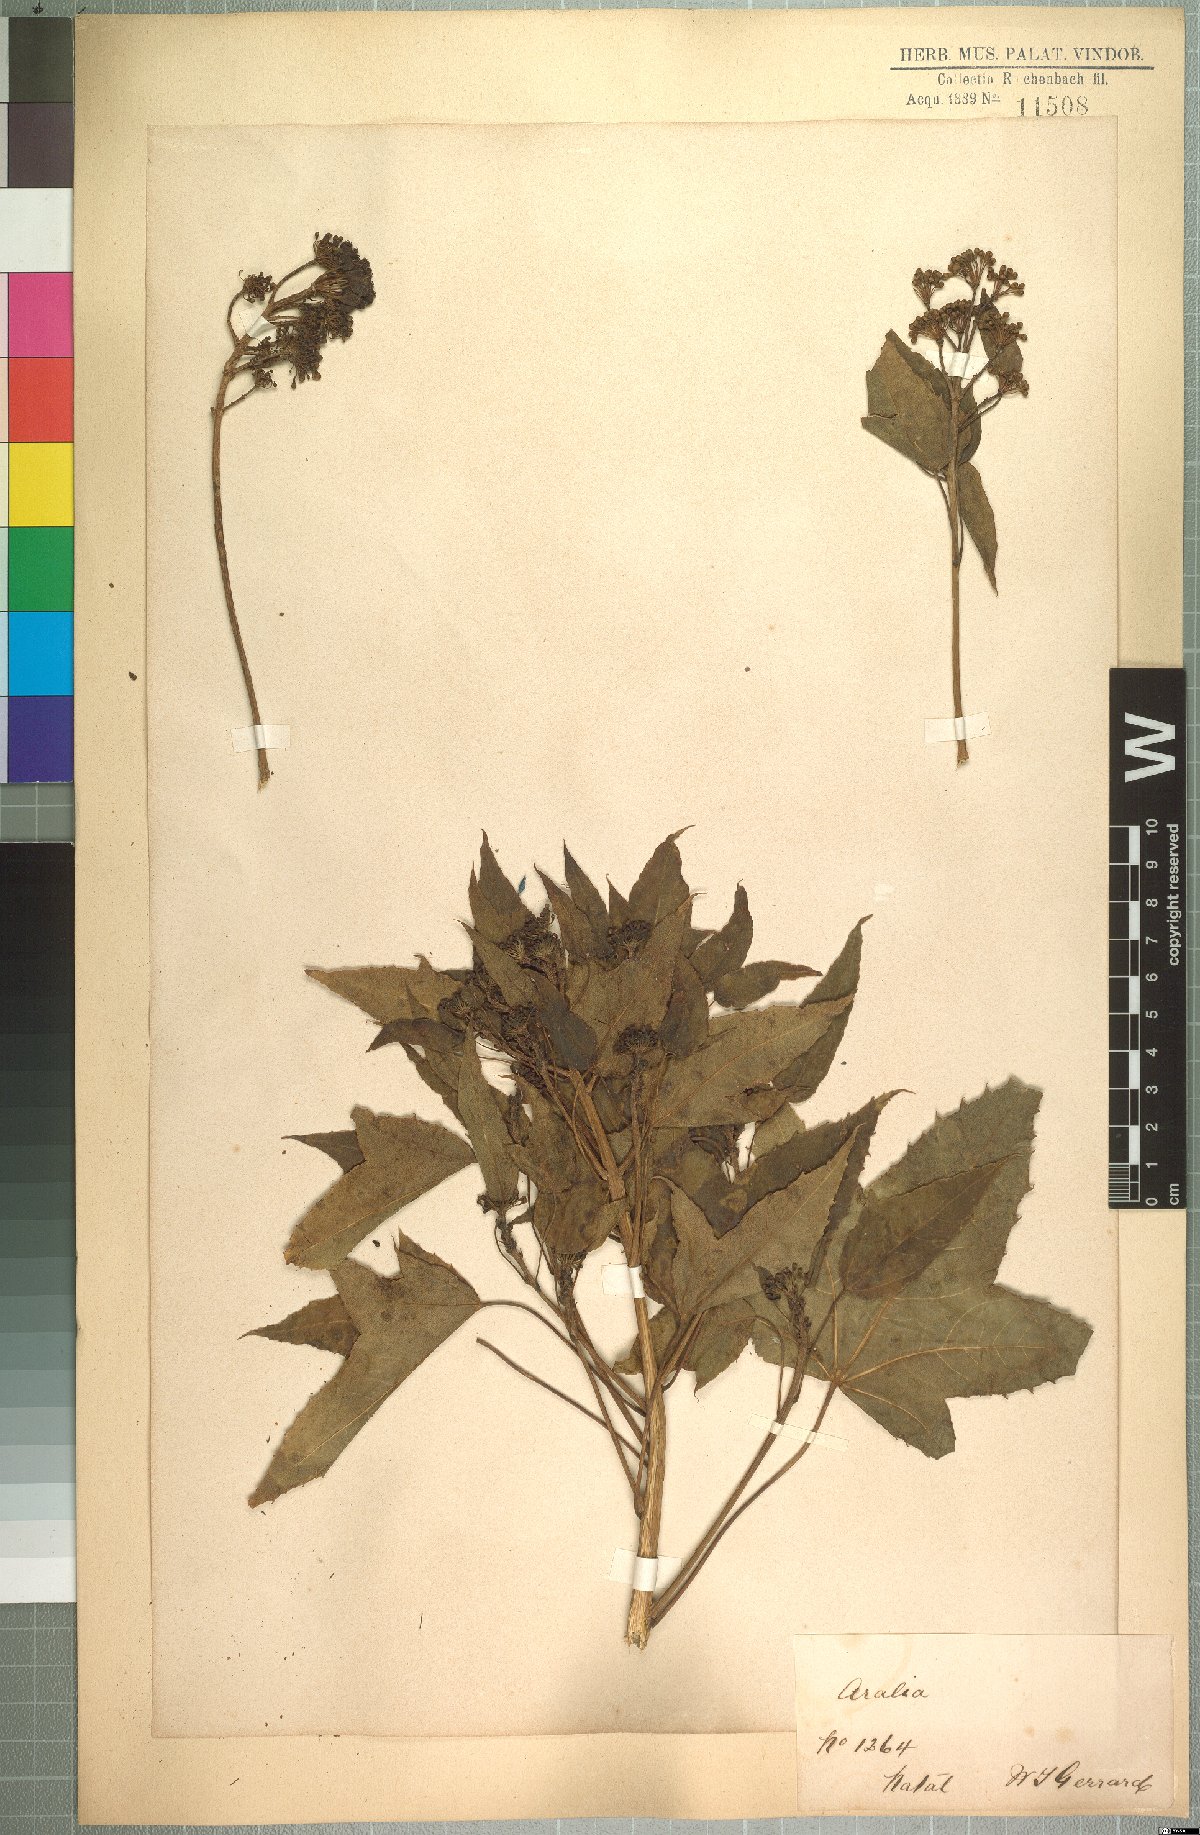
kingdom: Plantae
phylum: Tracheophyta
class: Magnoliopsida
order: Apiales
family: Araliaceae
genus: Seemannaralia
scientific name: Seemannaralia gerrardii
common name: Wild-maple
